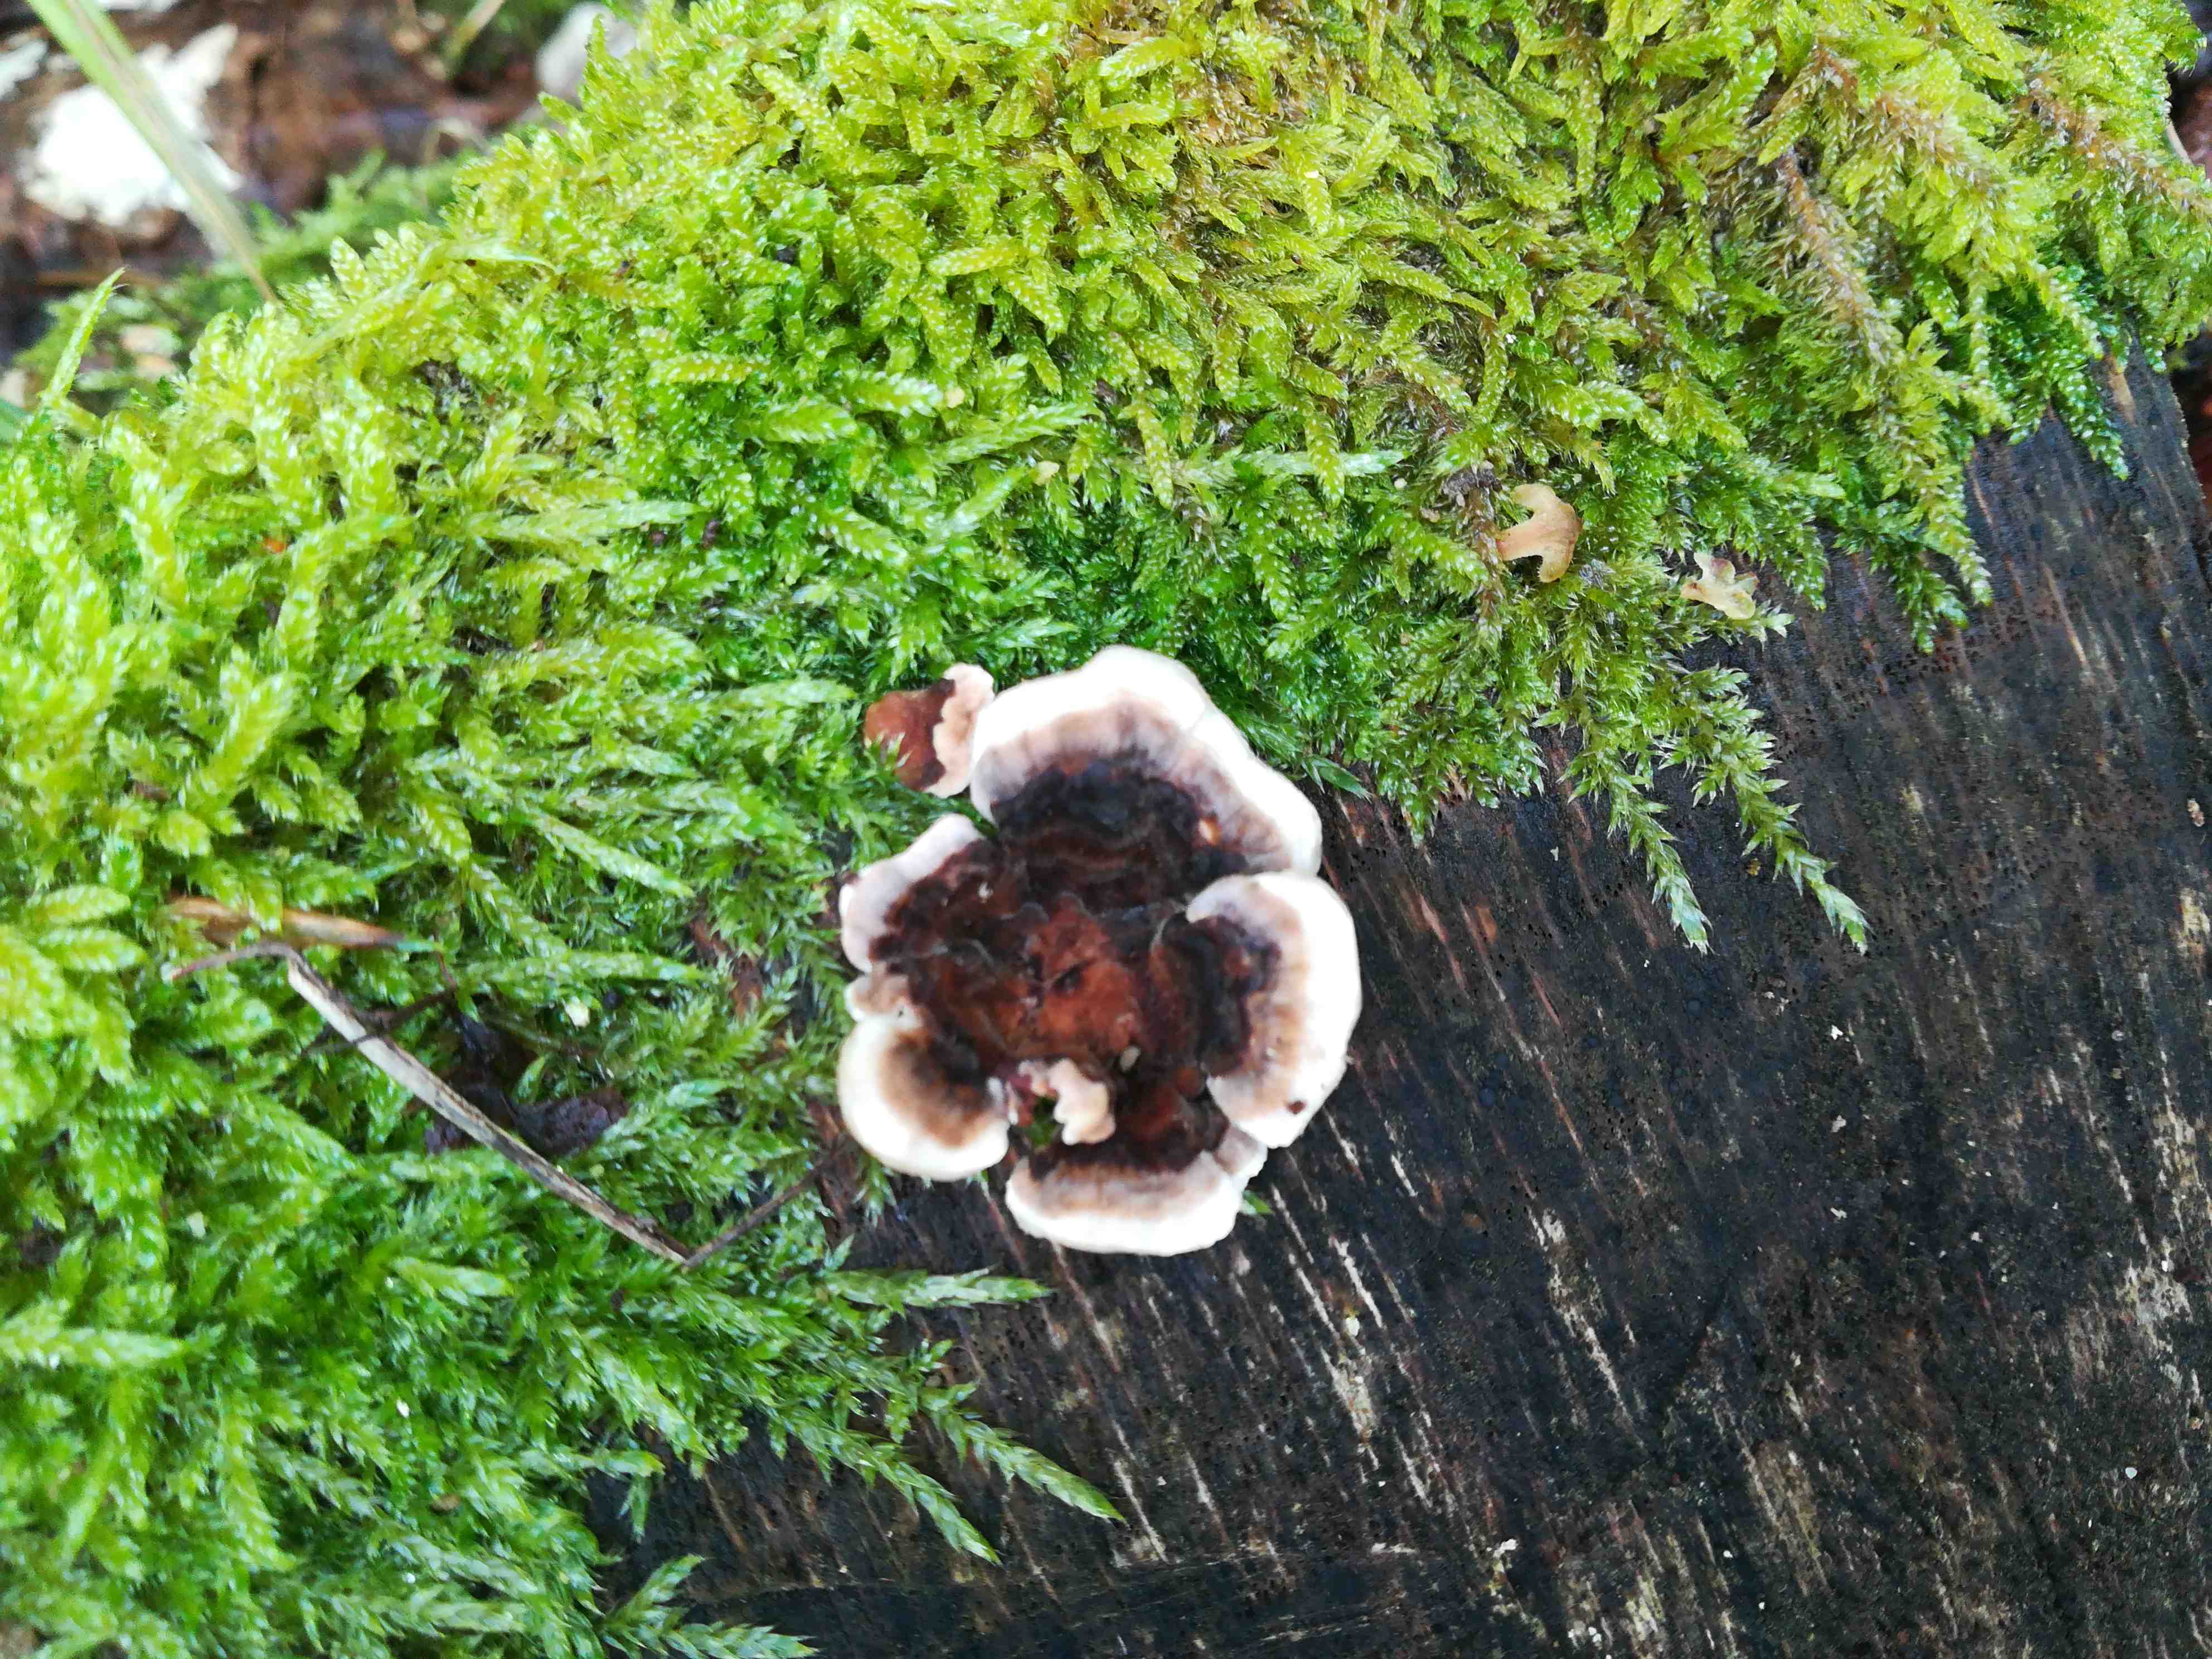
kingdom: Fungi
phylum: Basidiomycota
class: Agaricomycetes
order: Polyporales
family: Polyporaceae
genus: Trametes
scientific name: Trametes versicolor
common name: broget læderporesvamp
